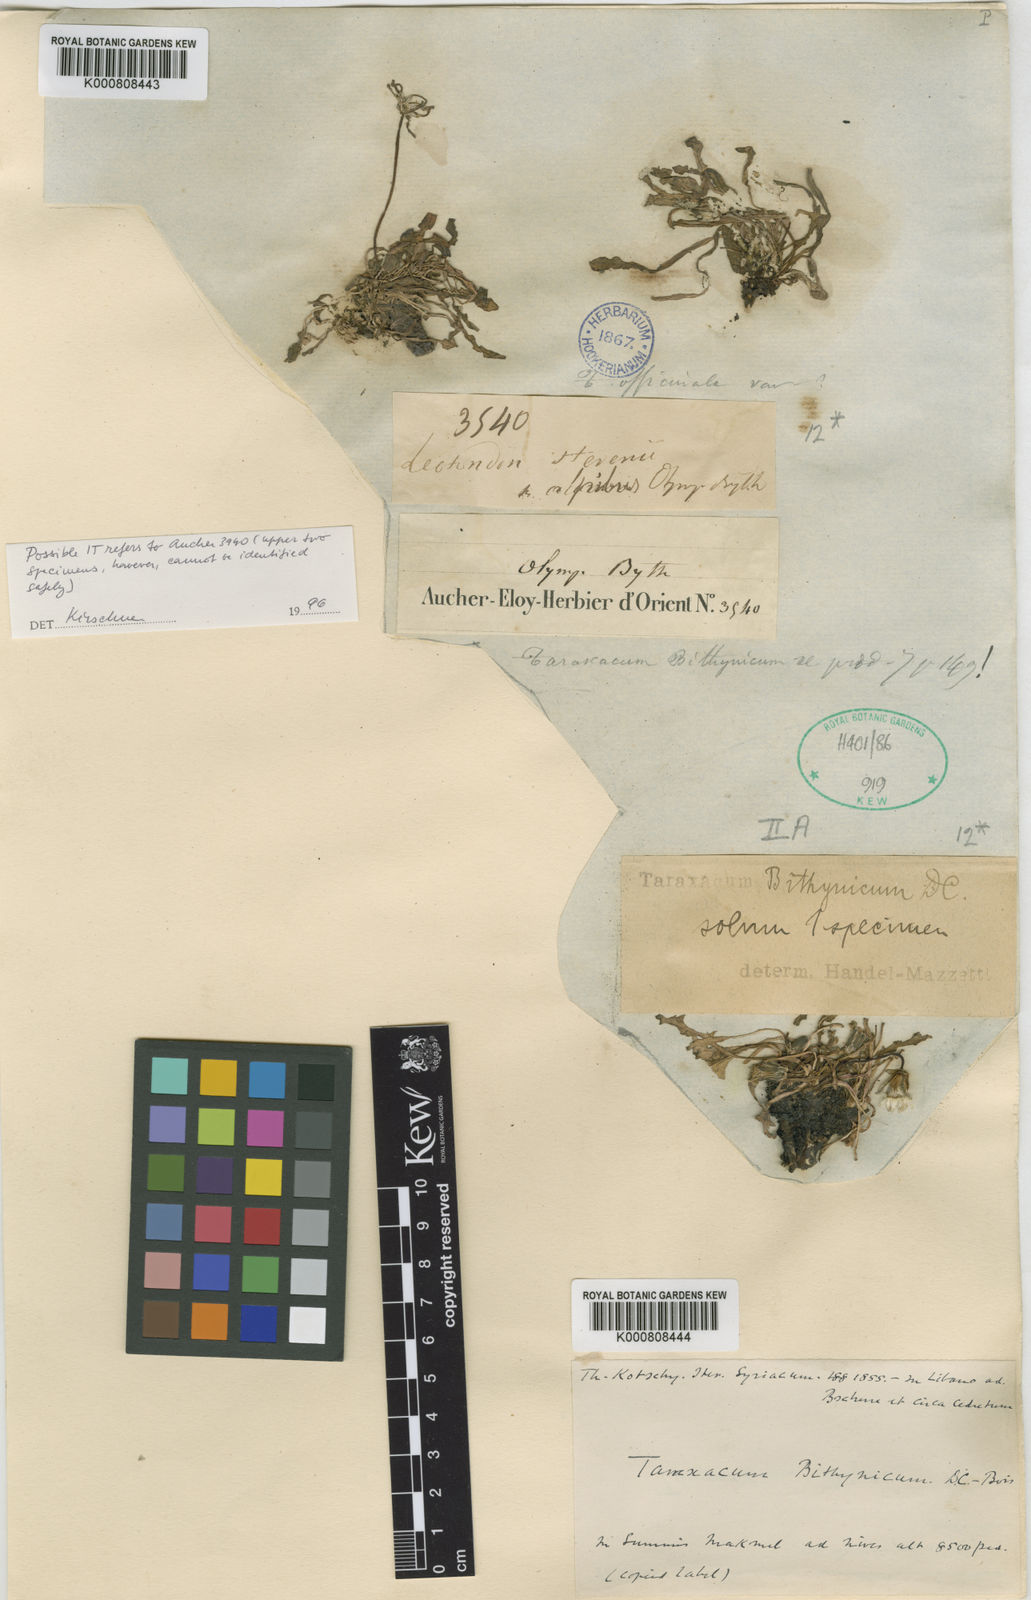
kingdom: Plantae
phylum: Tracheophyta
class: Magnoliopsida
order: Asterales
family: Asteraceae
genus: Taraxacum
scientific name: Taraxacum bithynicum
